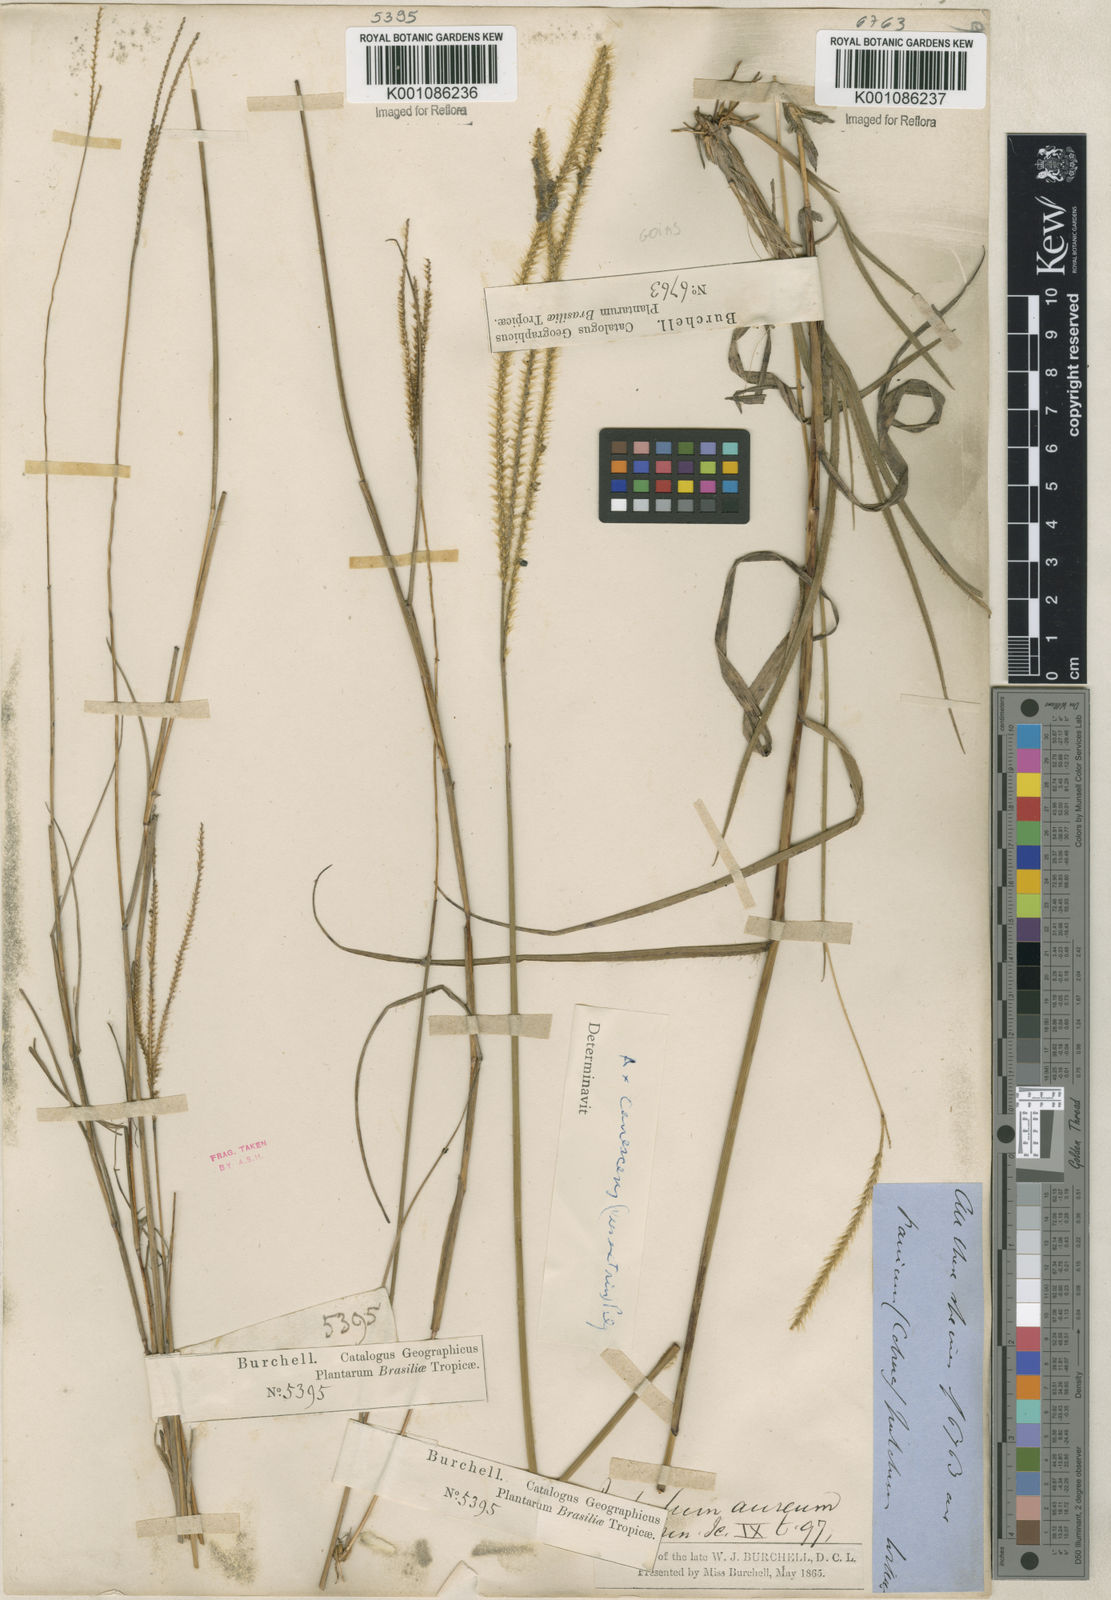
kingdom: Plantae
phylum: Tracheophyta
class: Liliopsida
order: Poales
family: Poaceae
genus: Axonopus
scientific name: Axonopus aureus
